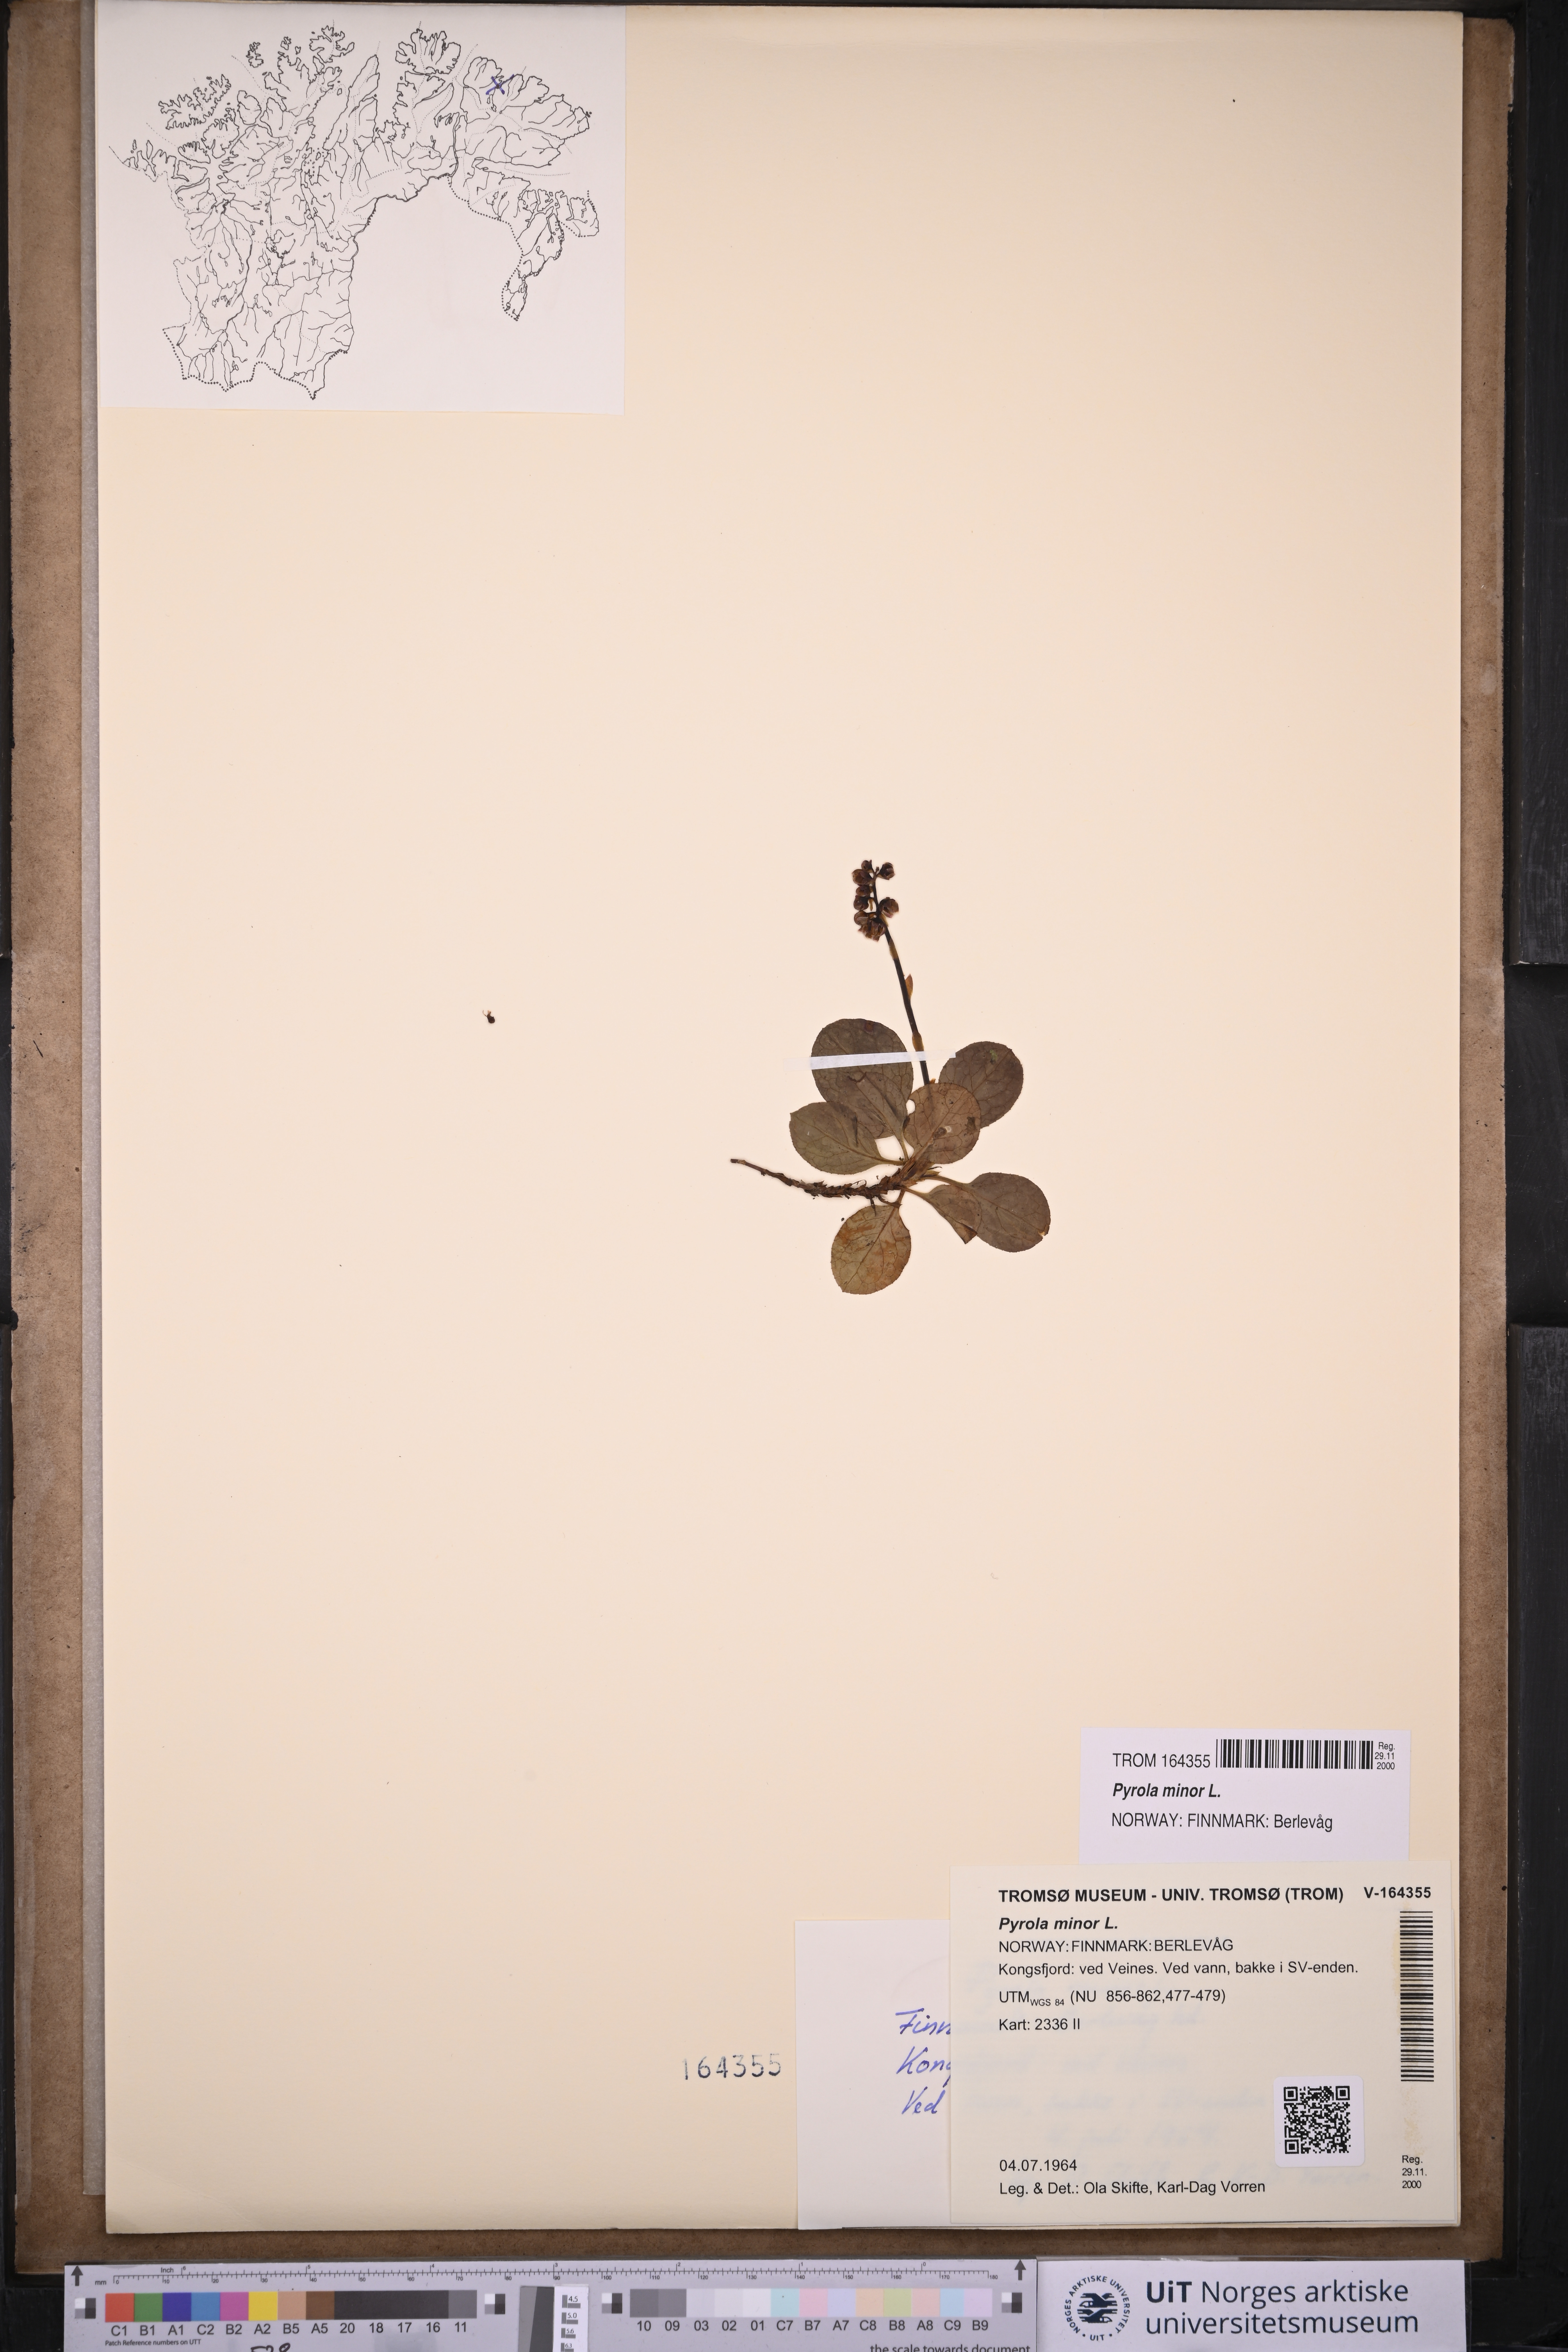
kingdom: Plantae
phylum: Tracheophyta
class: Magnoliopsida
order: Ericales
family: Ericaceae
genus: Pyrola
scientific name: Pyrola minor
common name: Common wintergreen
